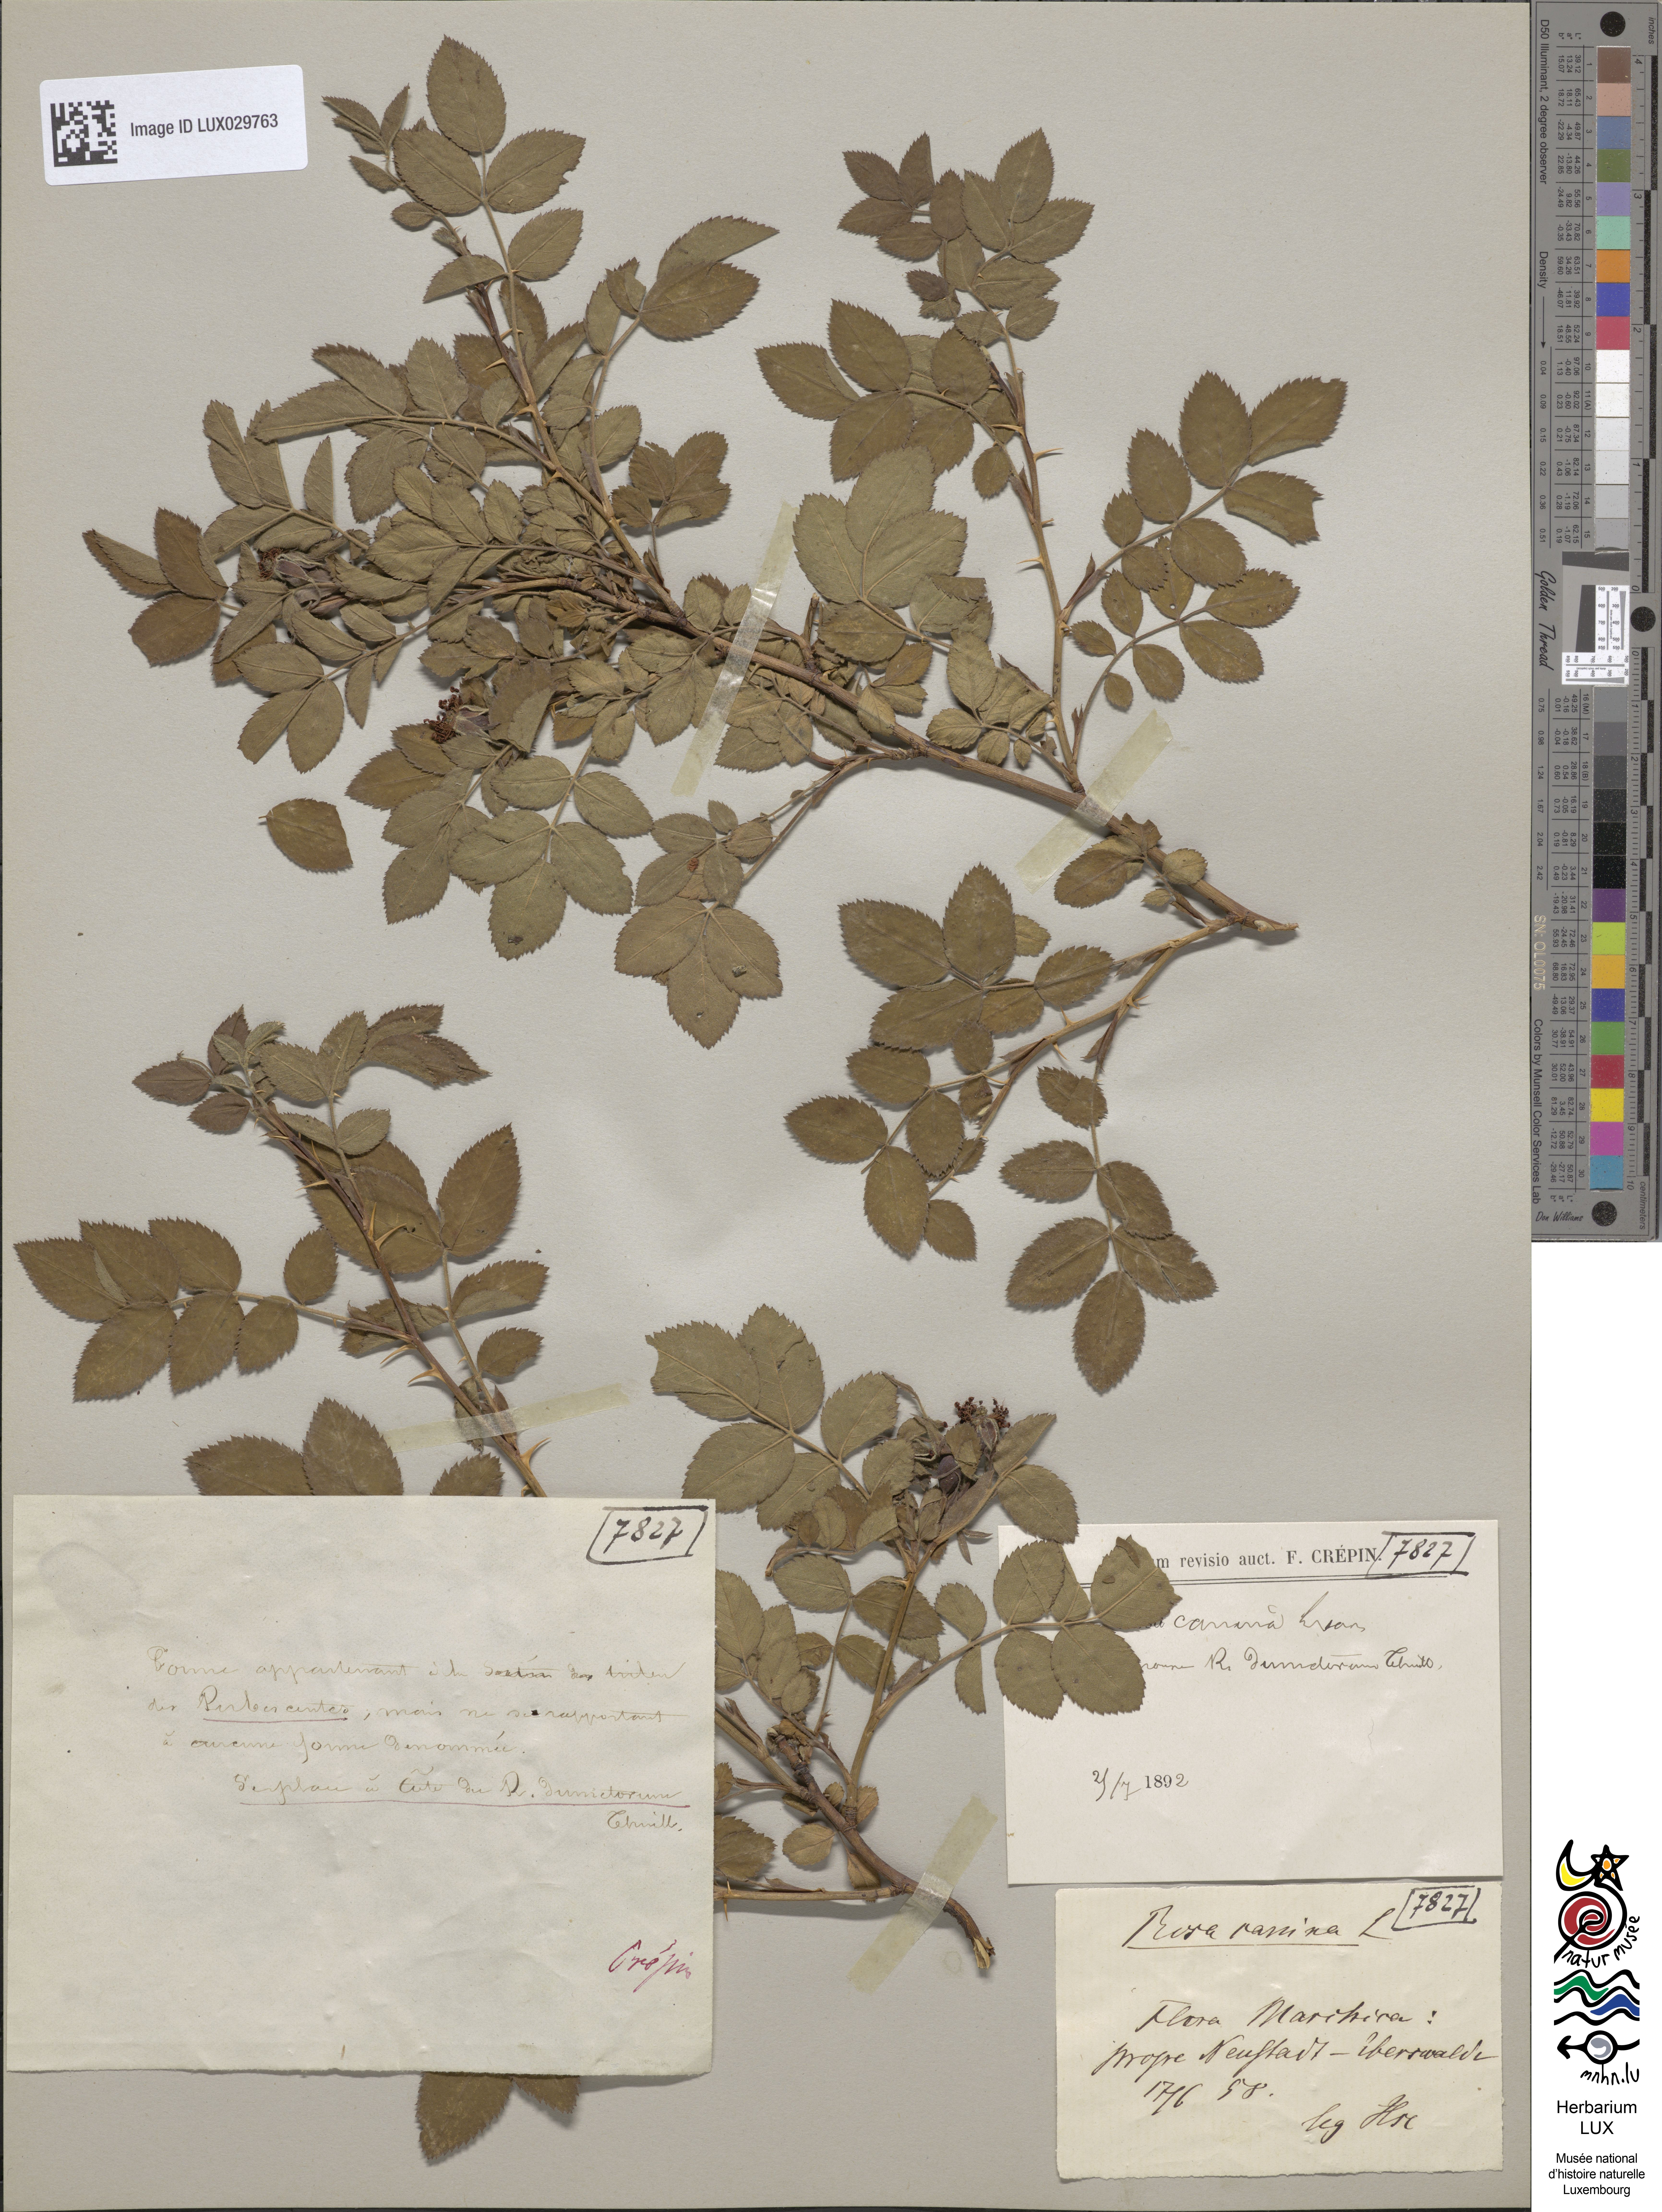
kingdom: Plantae
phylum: Tracheophyta
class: Magnoliopsida
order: Rosales
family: Rosaceae
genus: Rosa
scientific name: Rosa canina
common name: Dog rose
